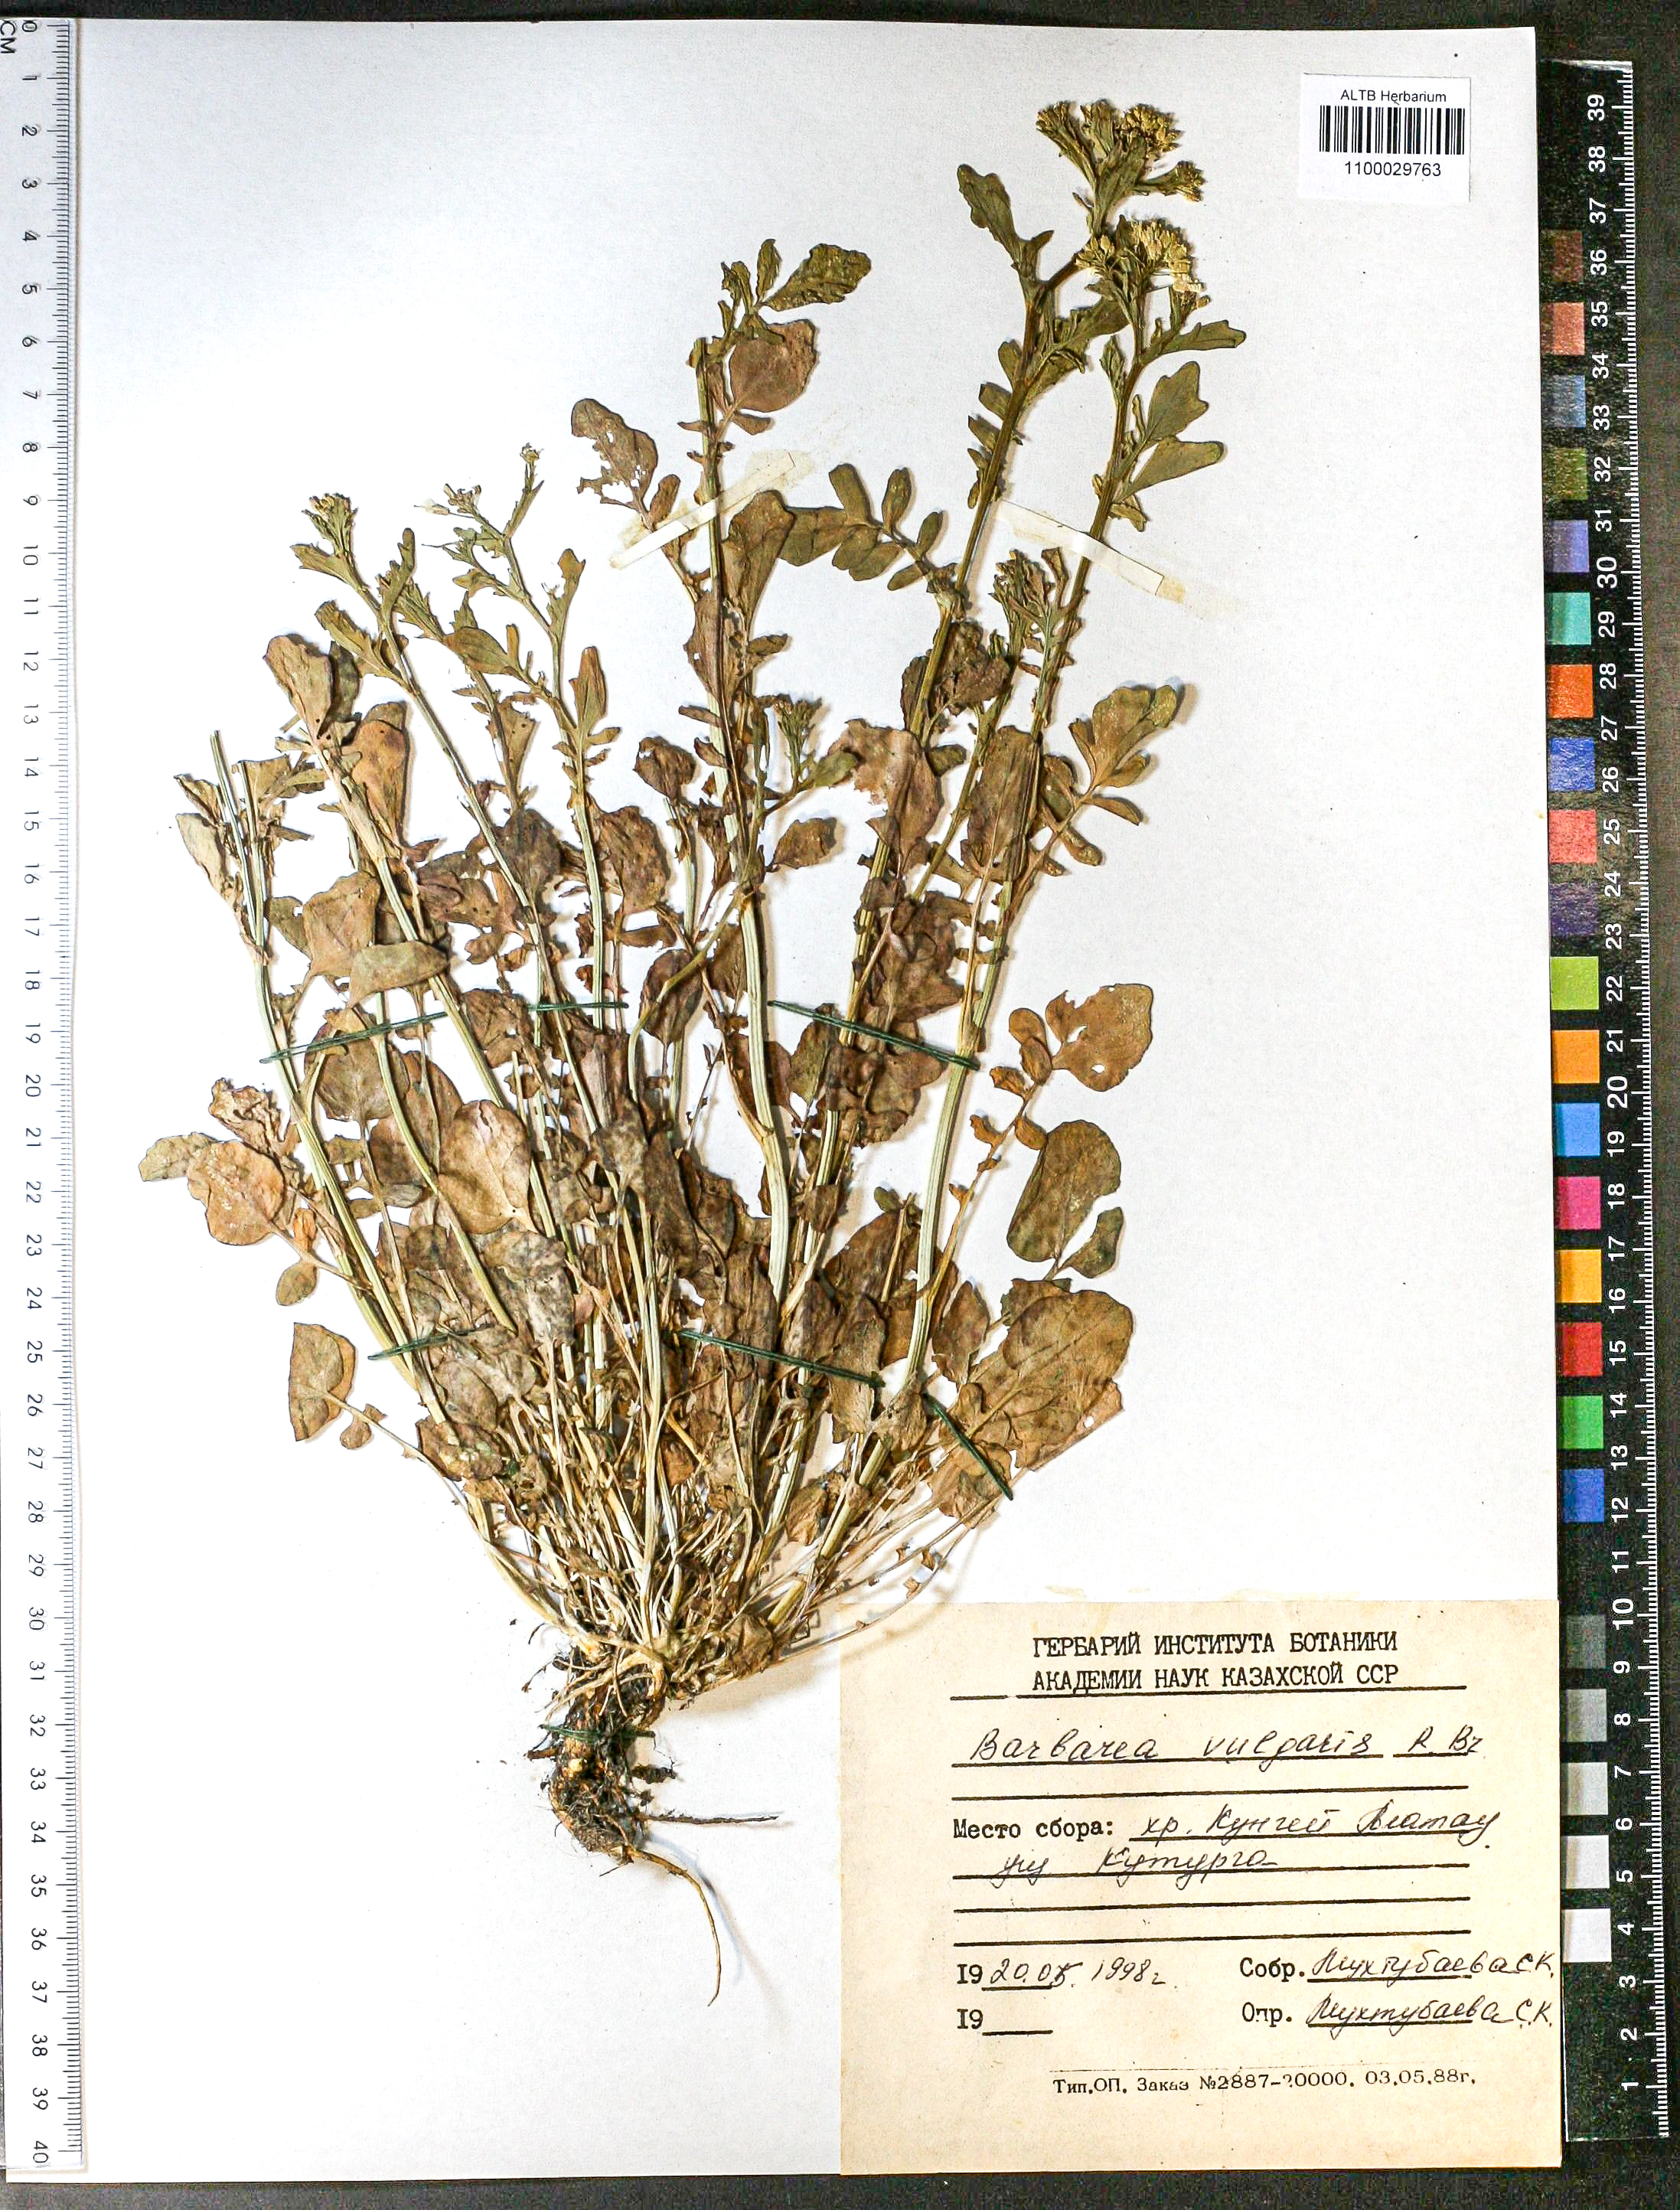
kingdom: Plantae
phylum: Tracheophyta
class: Magnoliopsida
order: Brassicales
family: Brassicaceae
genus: Barbarea
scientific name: Barbarea vulgaris
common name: Cressy-greens
